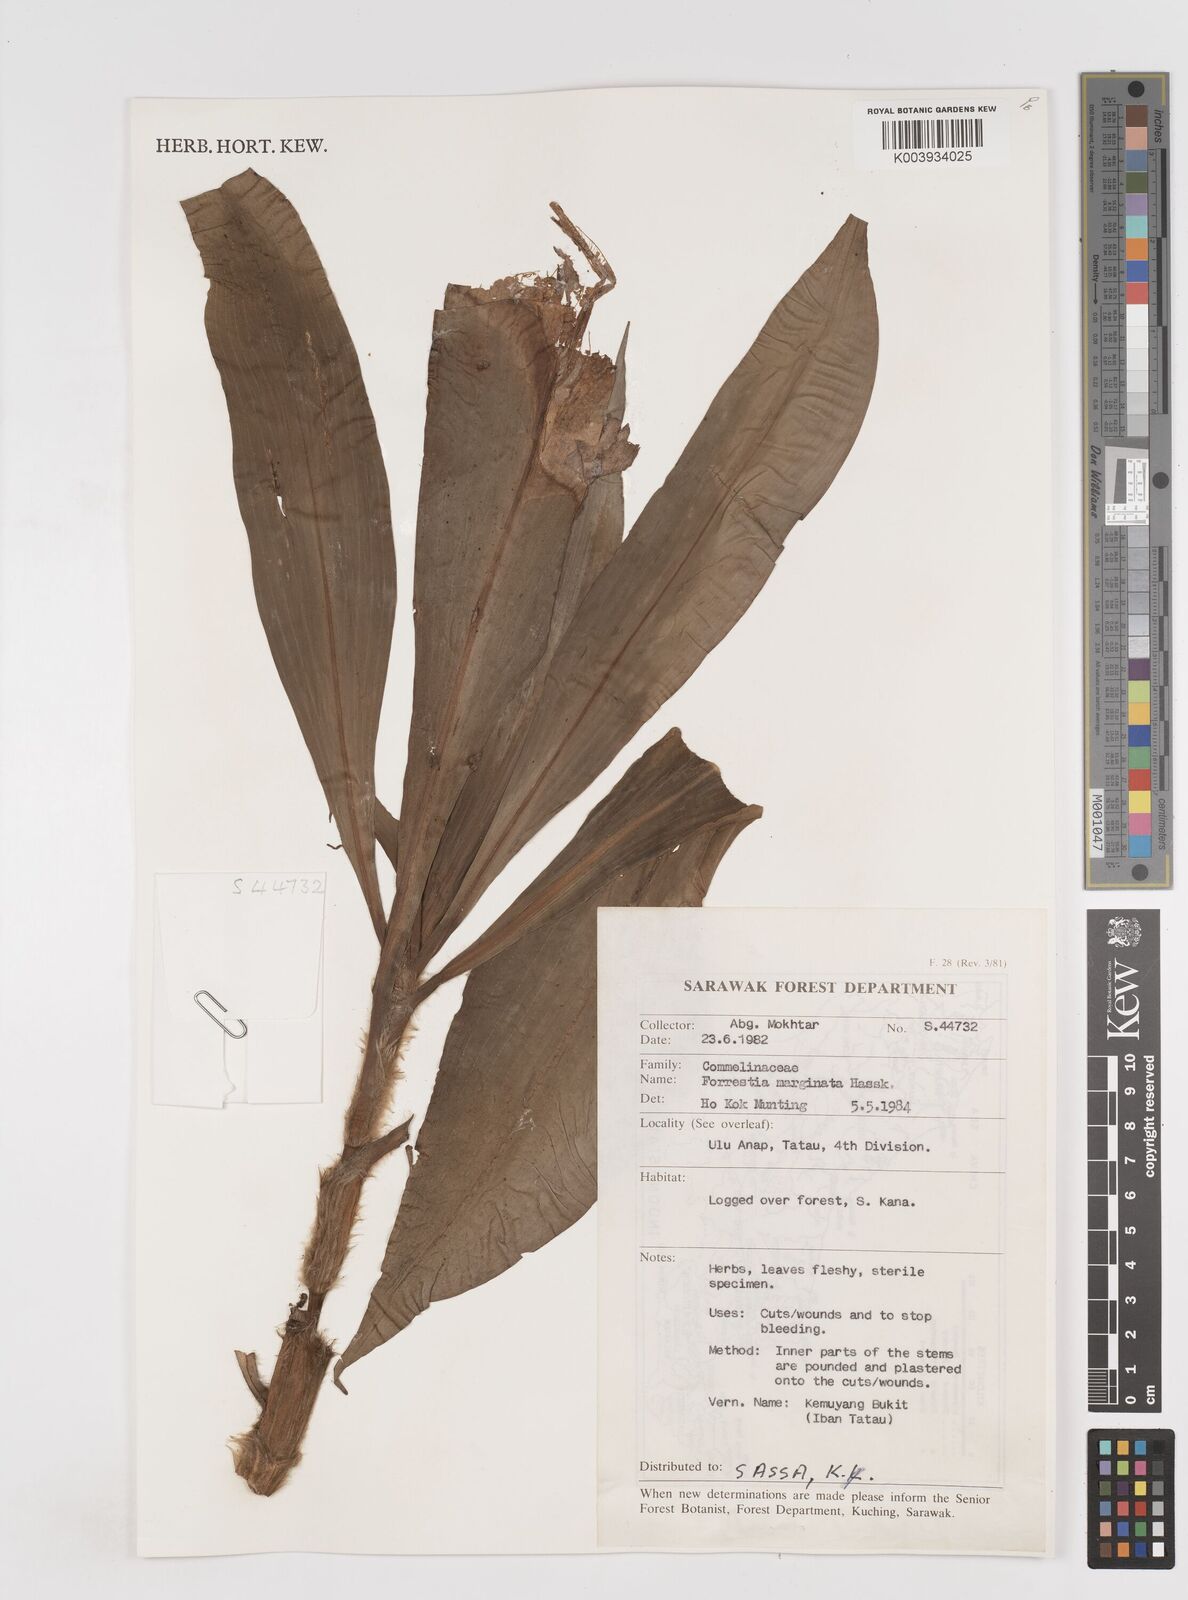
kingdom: Plantae
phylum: Tracheophyta
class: Liliopsida
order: Commelinales
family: Commelinaceae
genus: Amischotolype
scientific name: Amischotolype marginata
